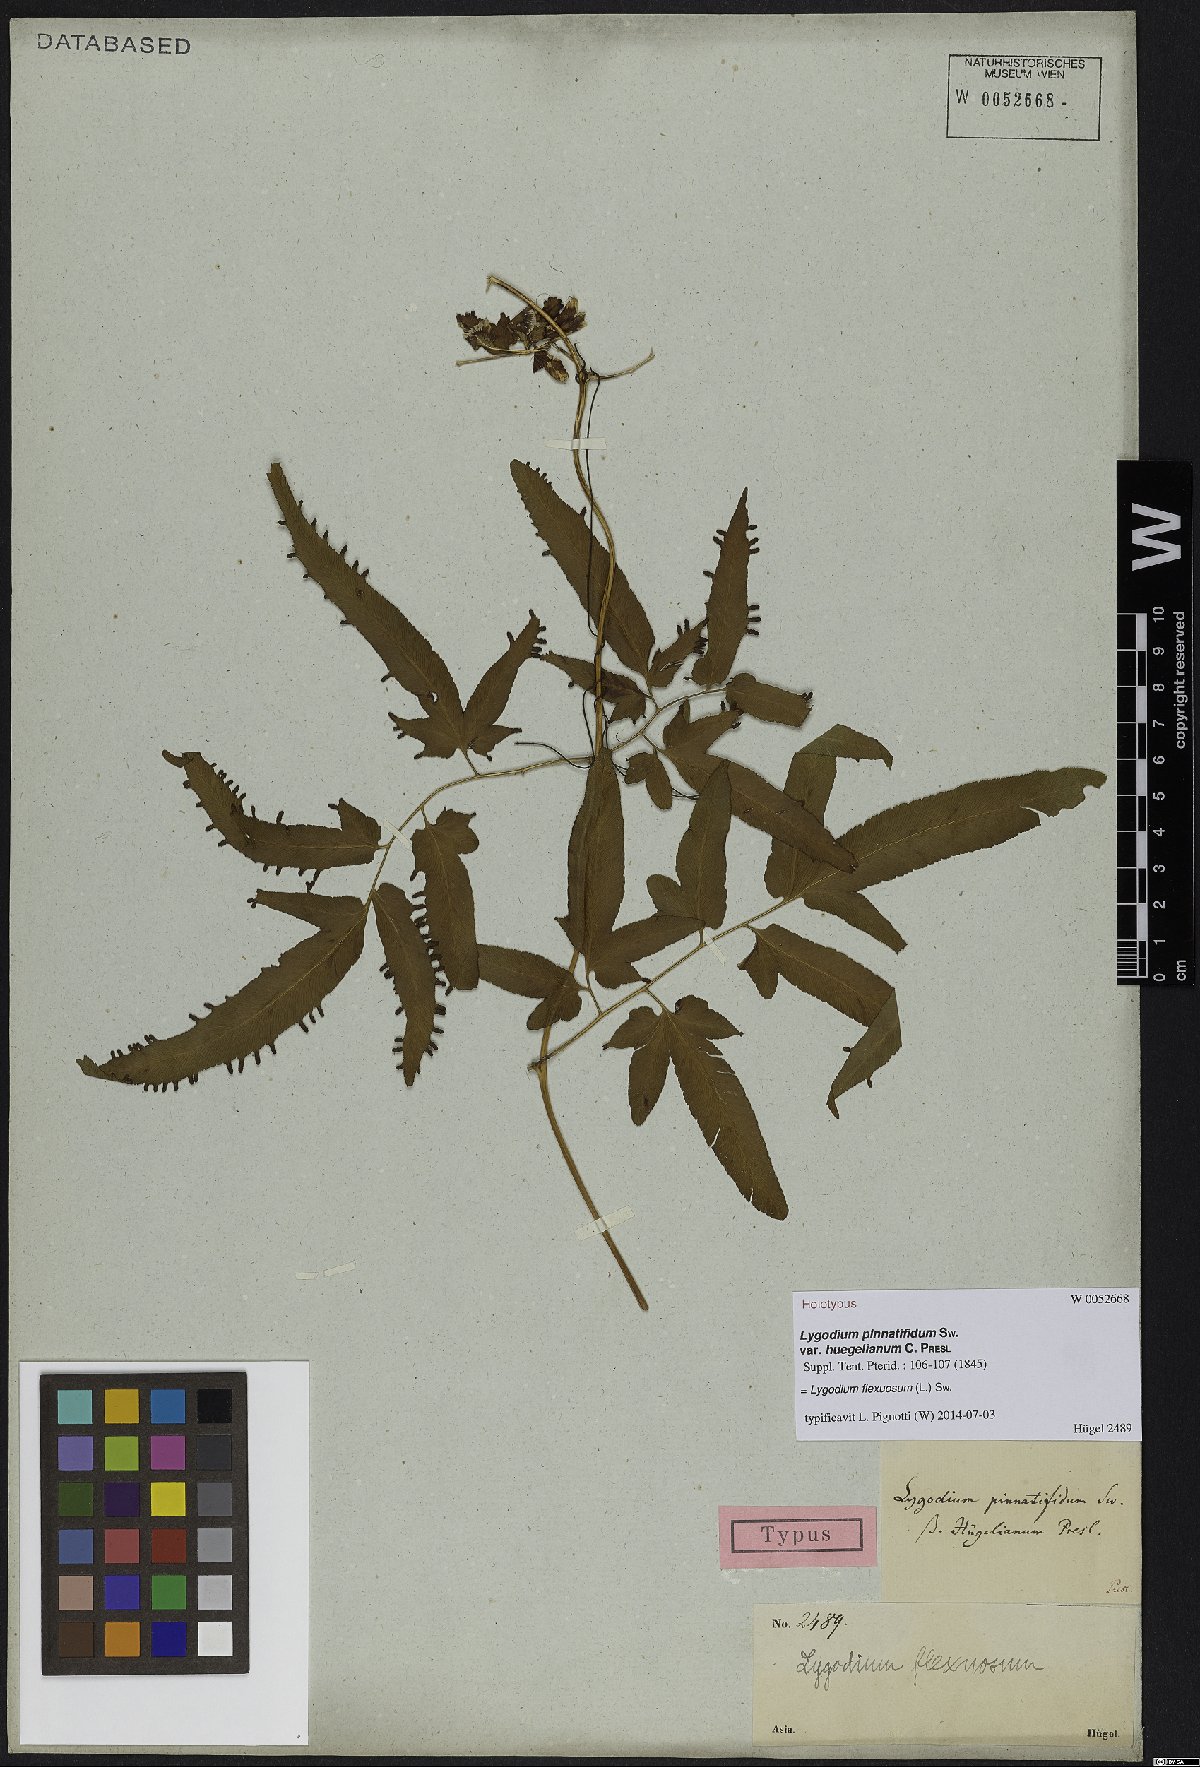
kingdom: Plantae
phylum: Tracheophyta
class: Polypodiopsida
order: Schizaeales
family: Lygodiaceae
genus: Lygodium
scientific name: Lygodium flexuosum
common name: Maidenhair creeper
